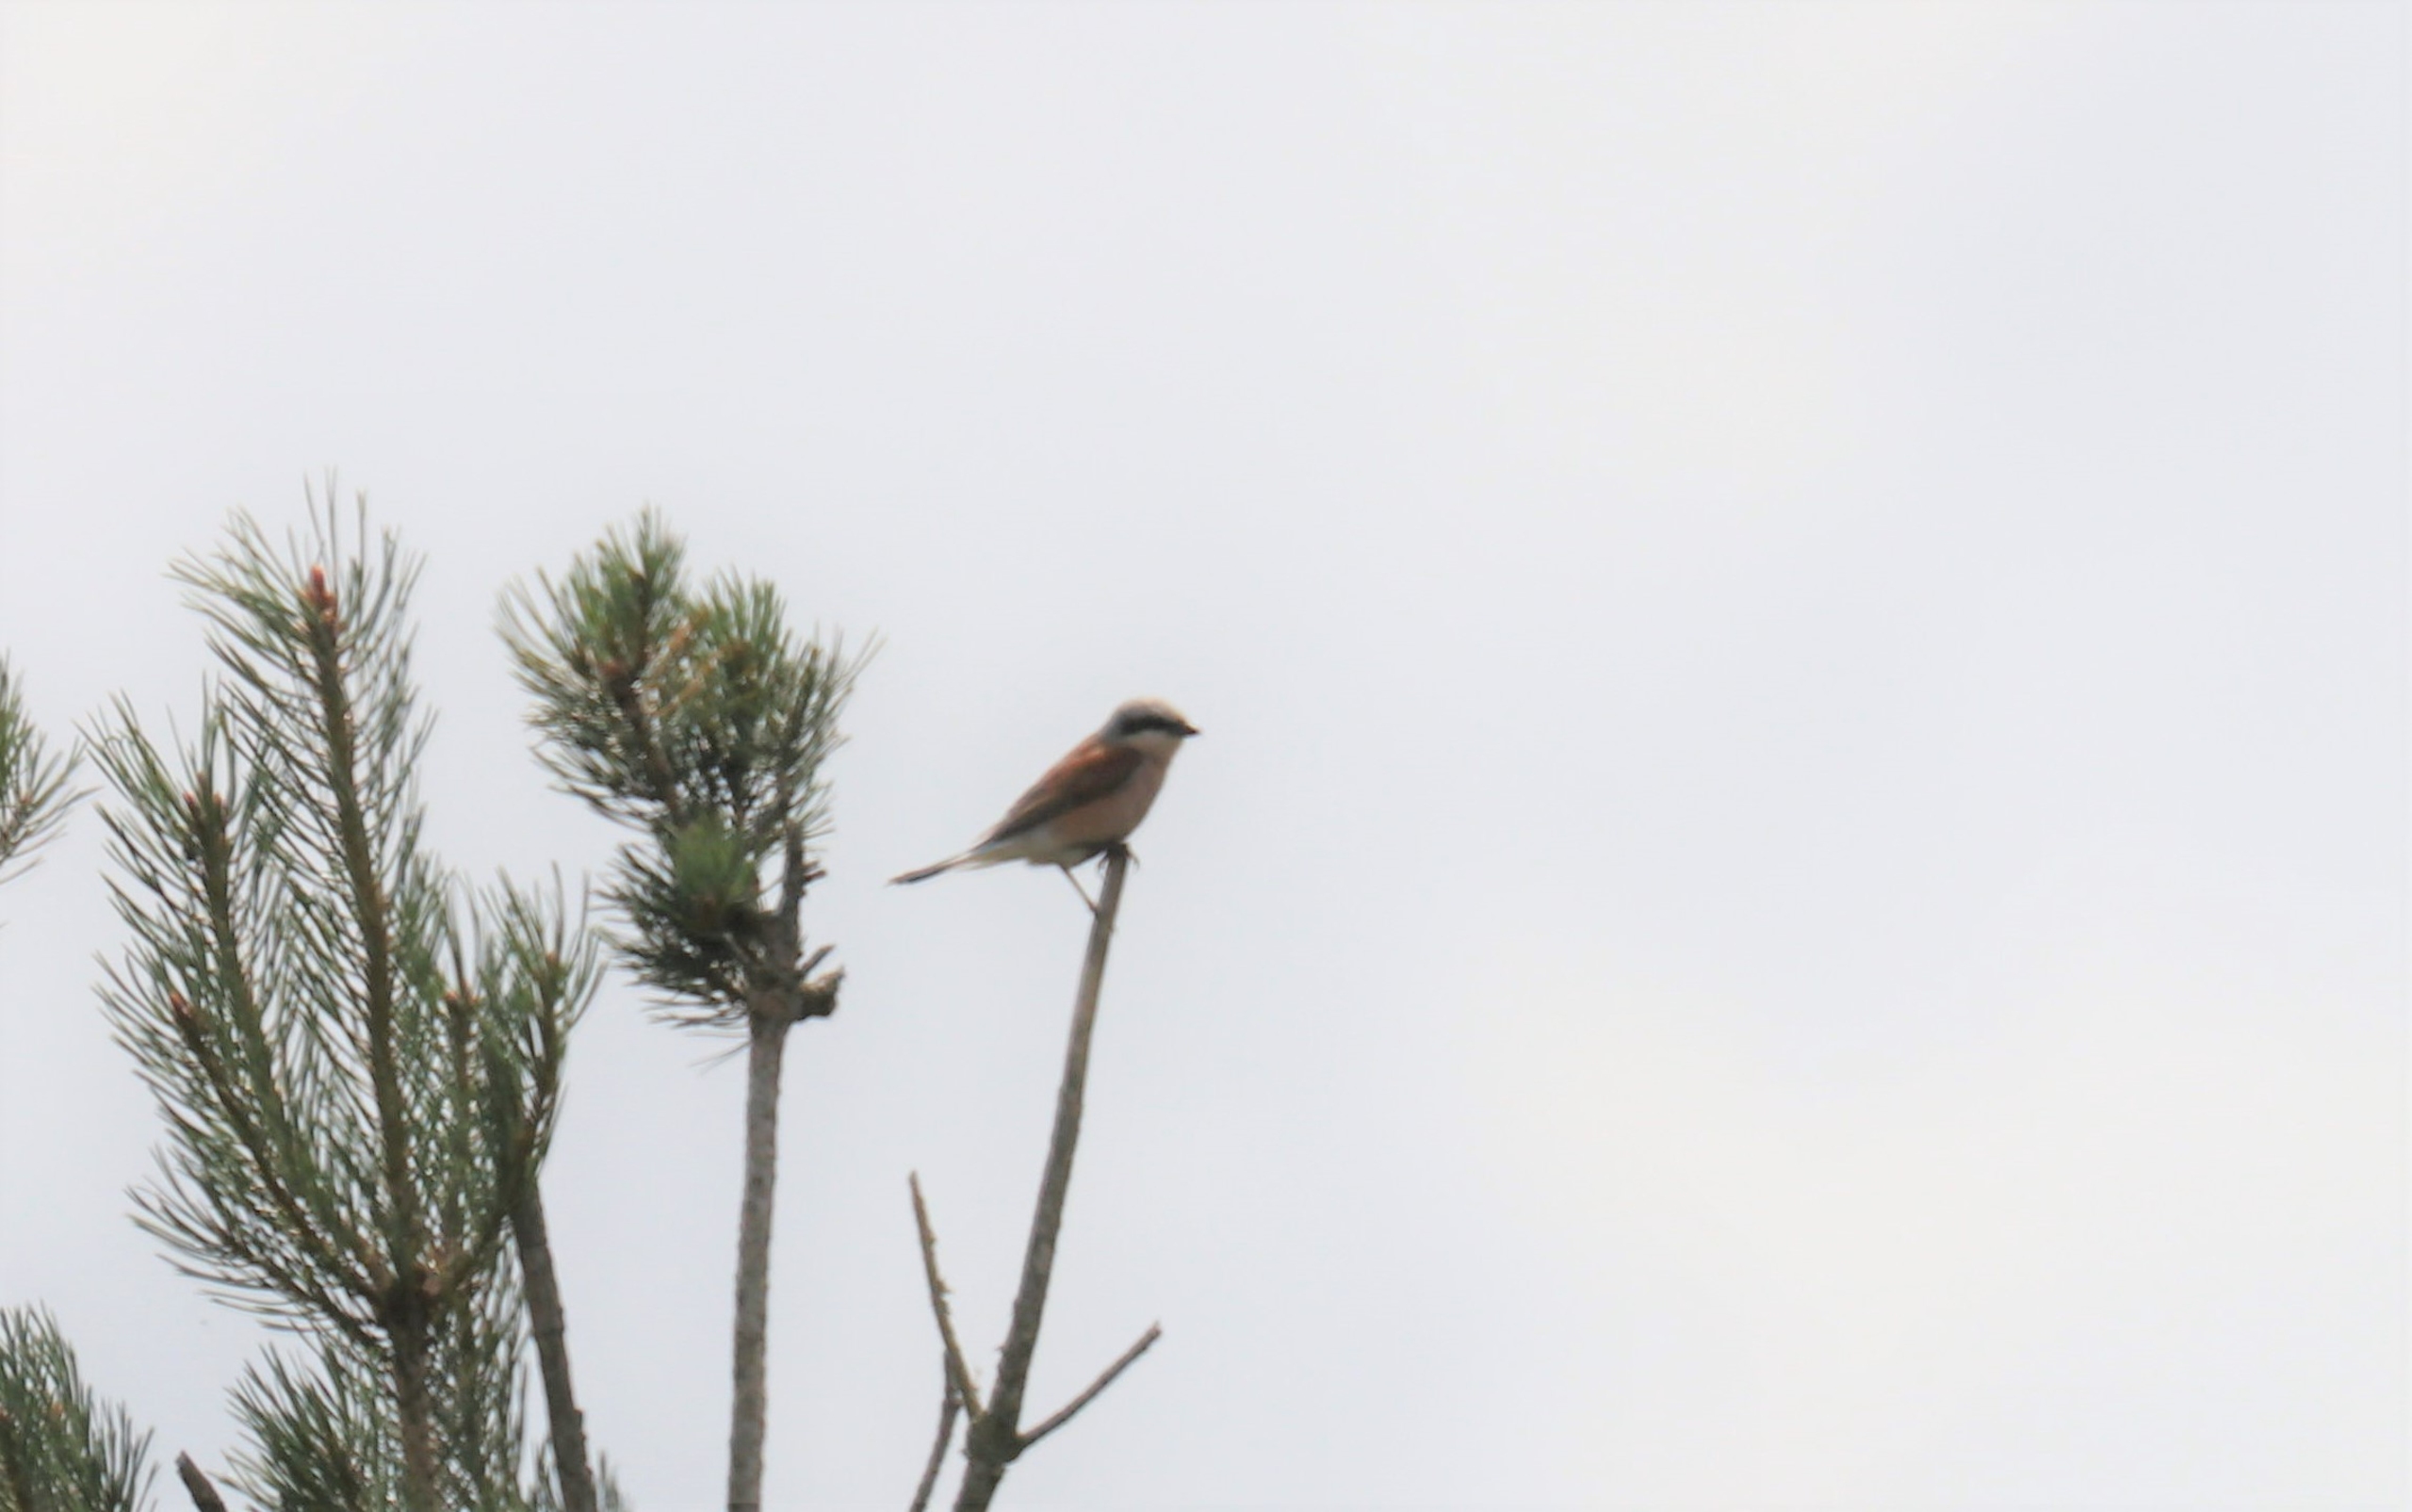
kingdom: Animalia
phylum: Chordata
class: Aves
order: Passeriformes
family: Laniidae
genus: Lanius
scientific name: Lanius collurio
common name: Rødrygget tornskade
